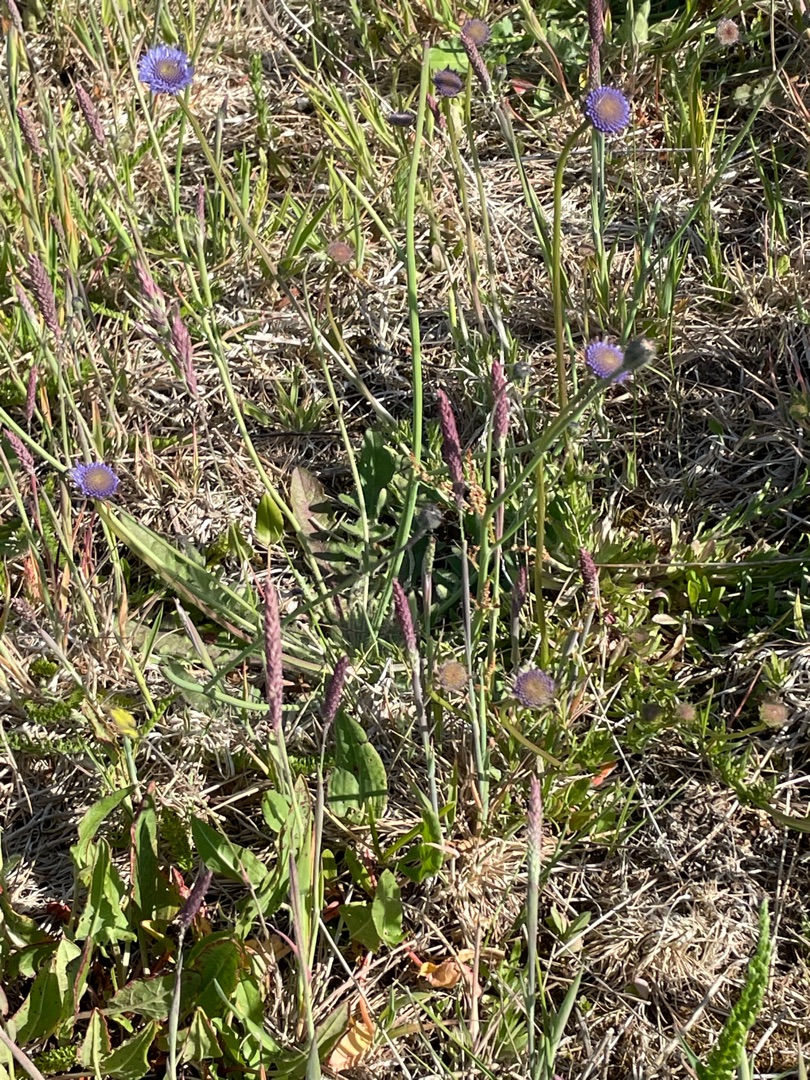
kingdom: Plantae
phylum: Tracheophyta
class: Magnoliopsida
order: Asterales
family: Campanulaceae
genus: Jasione
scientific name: Jasione montana
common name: Blåmunke
